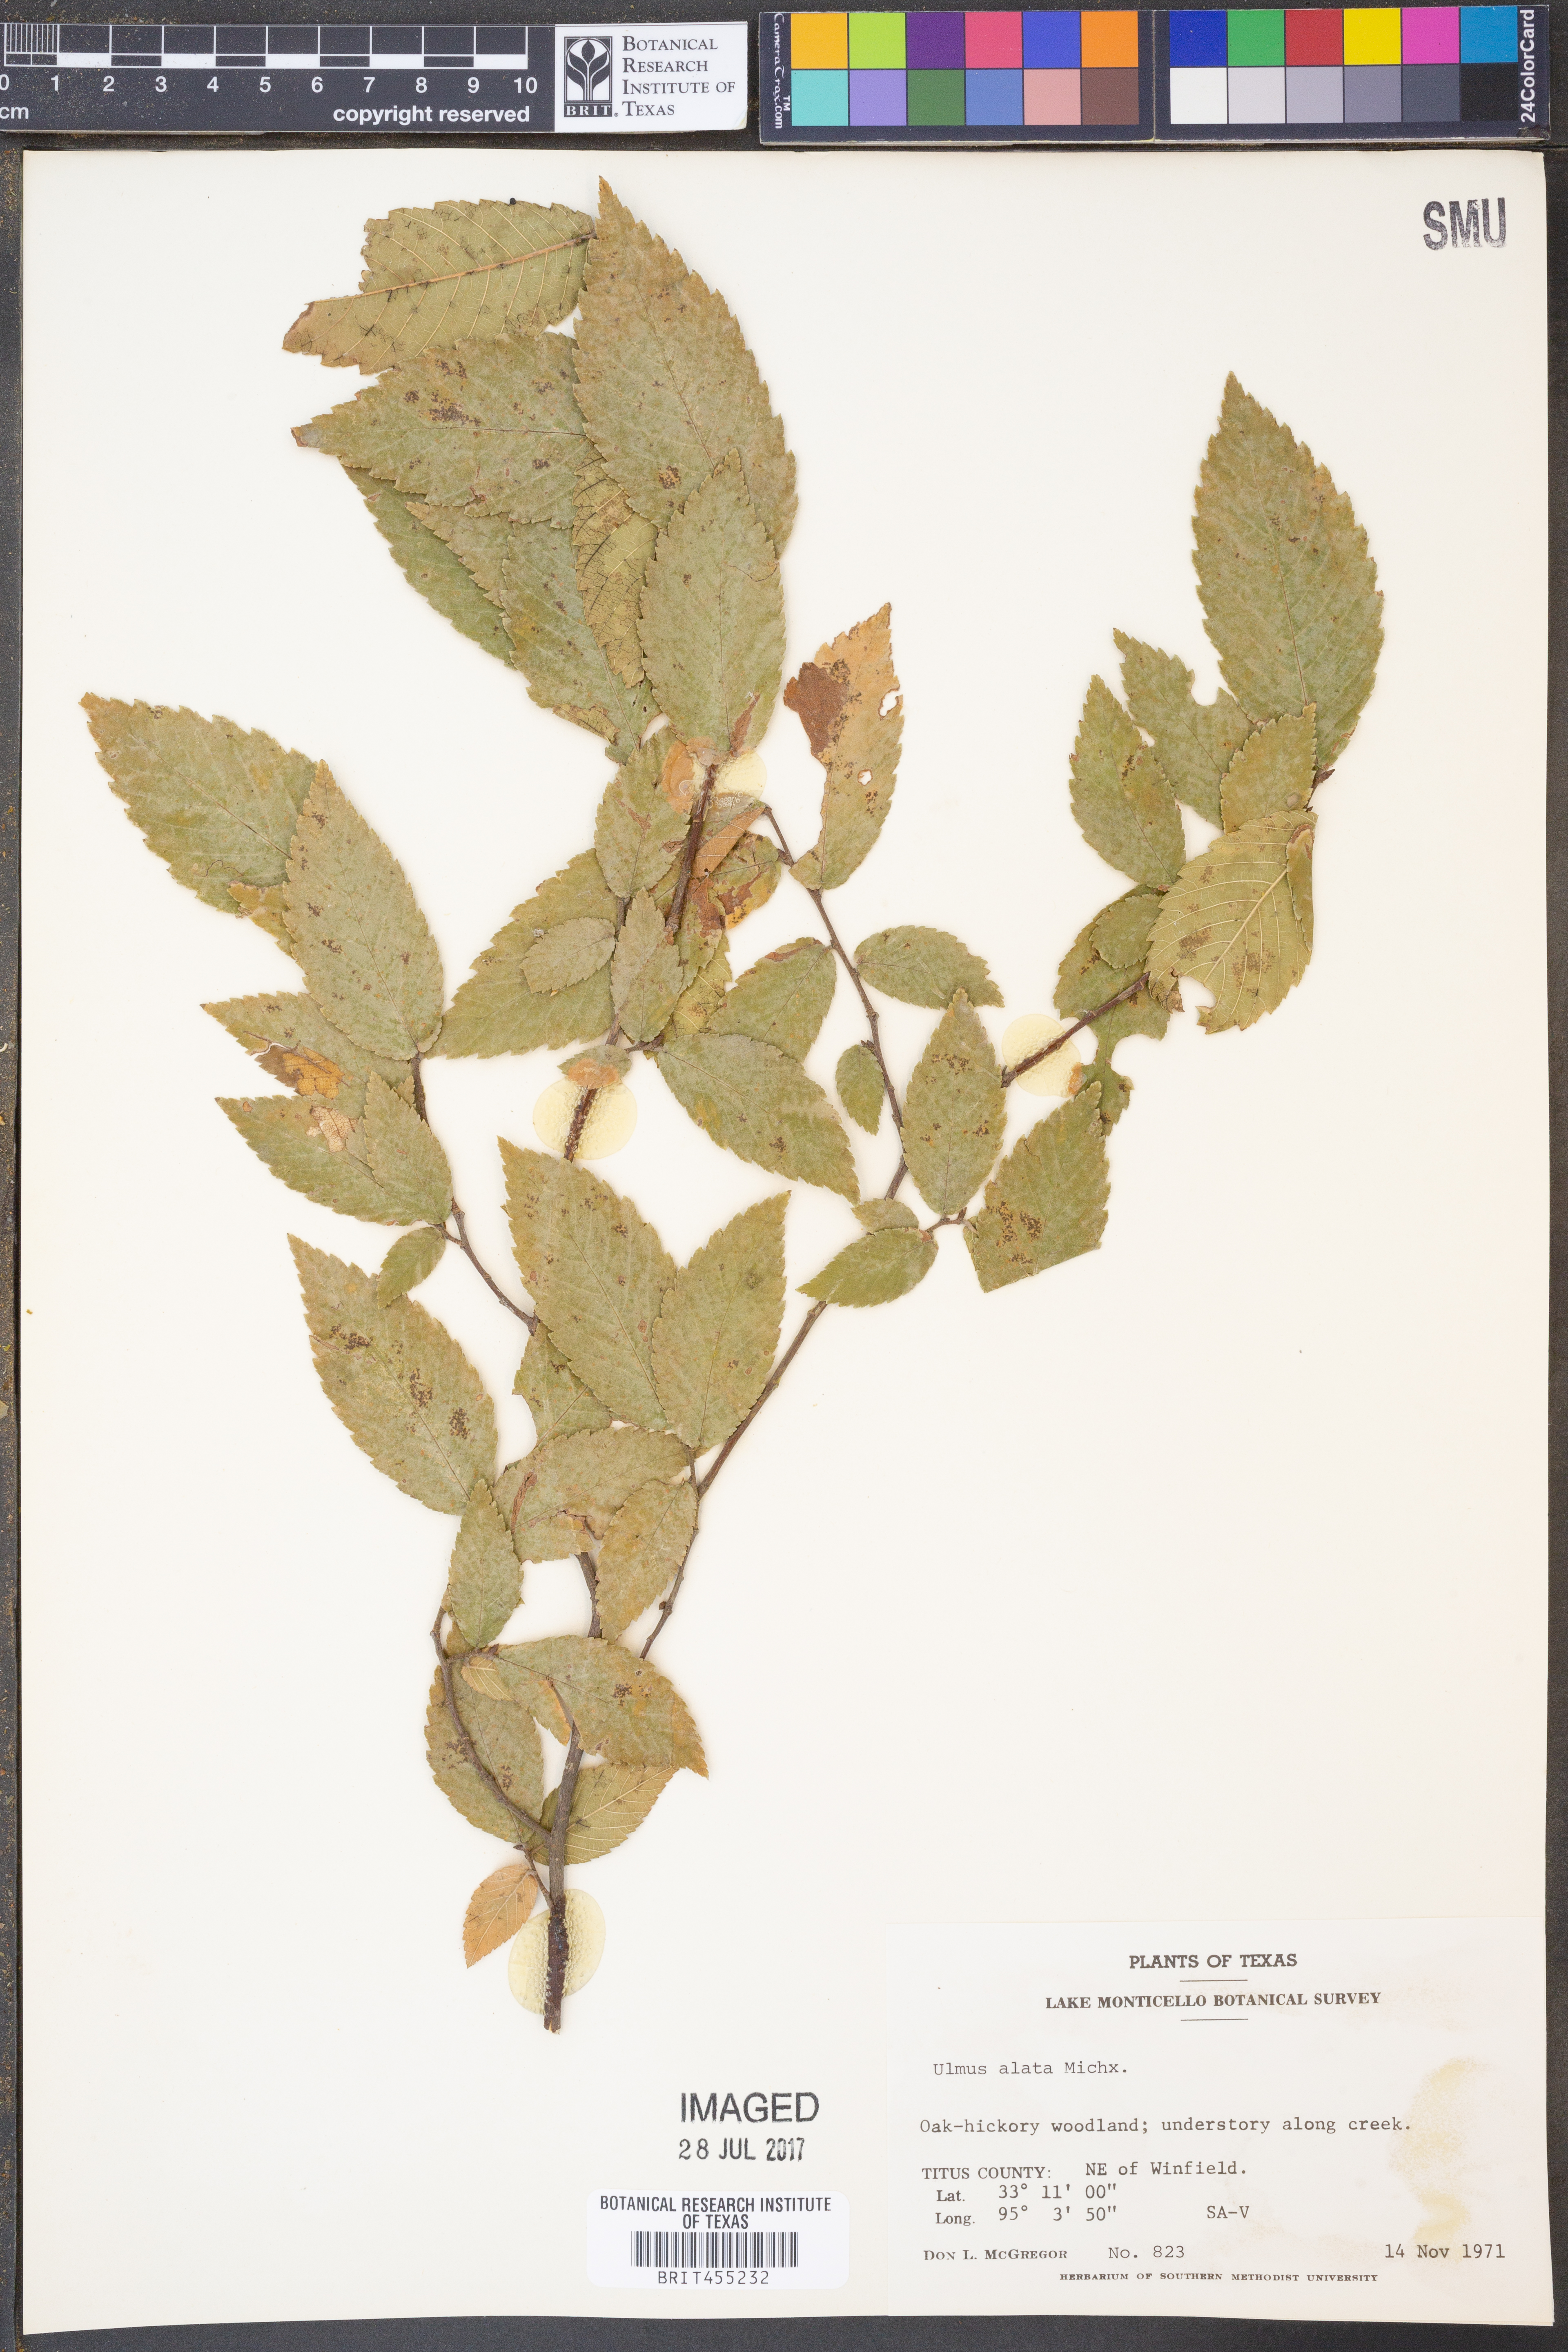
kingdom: Plantae
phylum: Tracheophyta
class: Magnoliopsida
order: Rosales
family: Ulmaceae
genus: Ulmus
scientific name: Ulmus alata
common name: Winged elm
